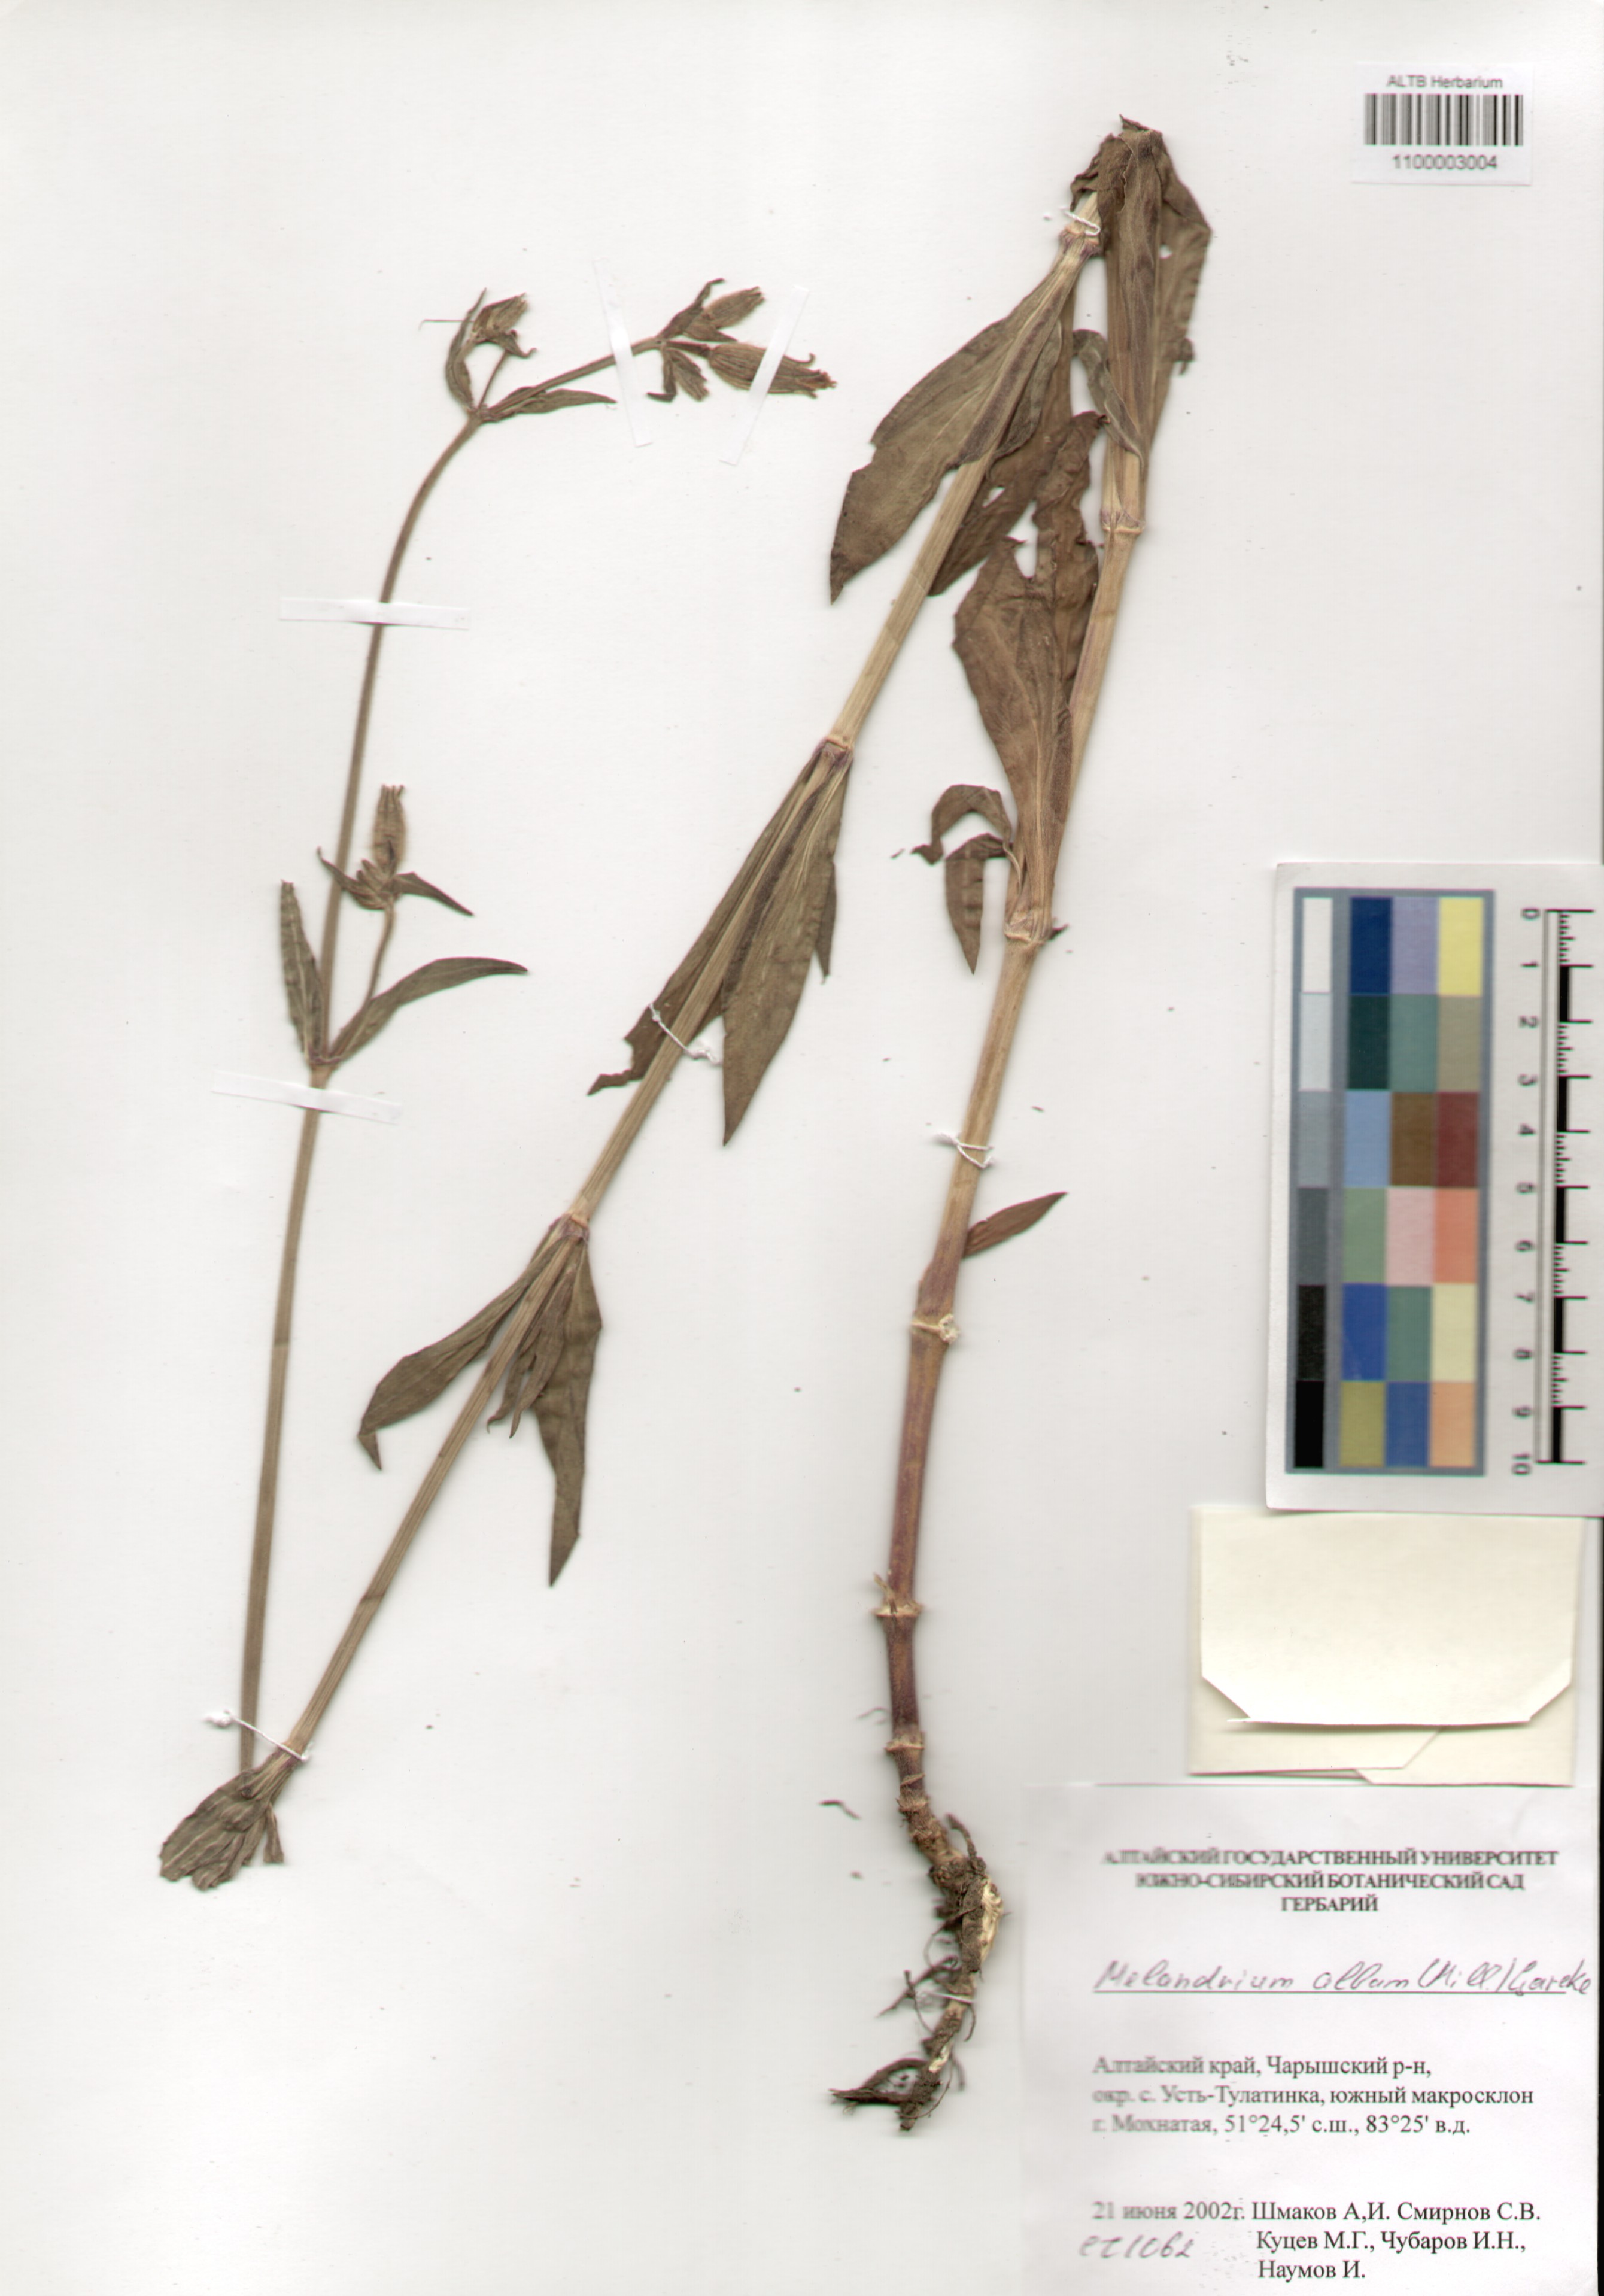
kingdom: Plantae
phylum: Tracheophyta
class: Magnoliopsida
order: Caryophyllales
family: Caryophyllaceae
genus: Silene
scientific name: Silene latifolia
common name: White campion
